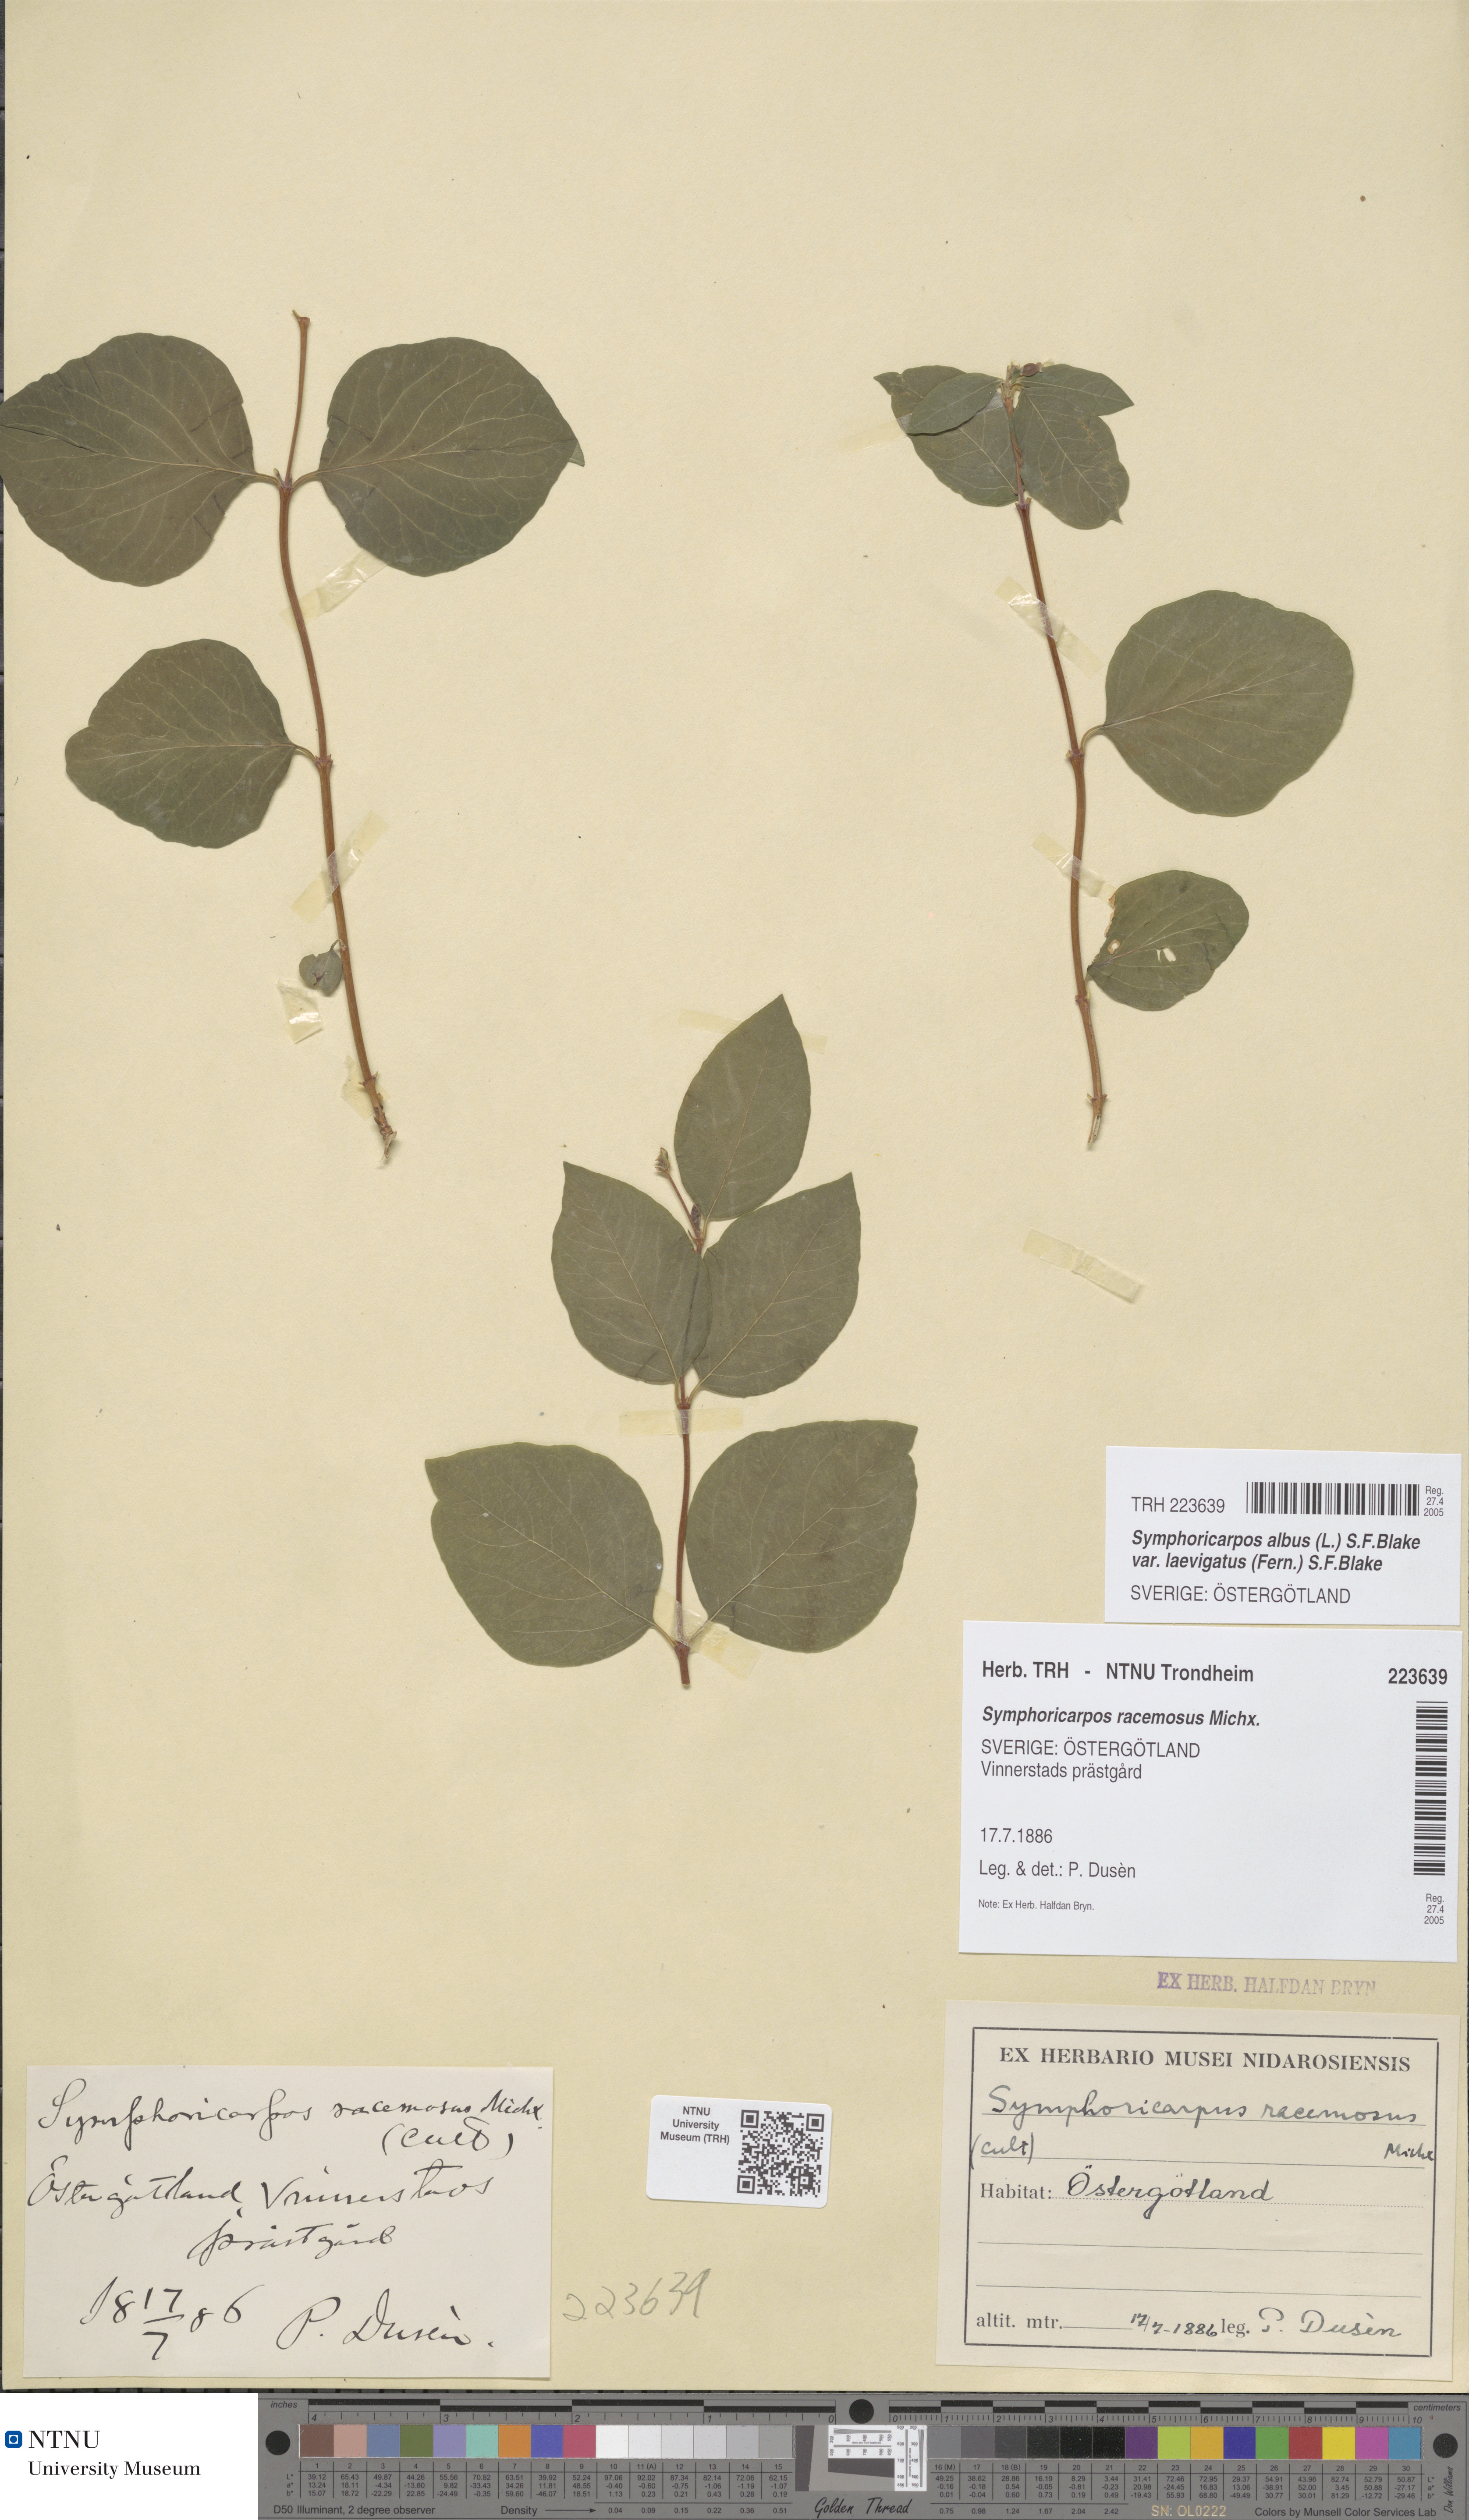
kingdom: Plantae
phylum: Tracheophyta
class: Magnoliopsida
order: Dipsacales
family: Caprifoliaceae
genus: Symphoricarpos
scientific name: Symphoricarpos albus
